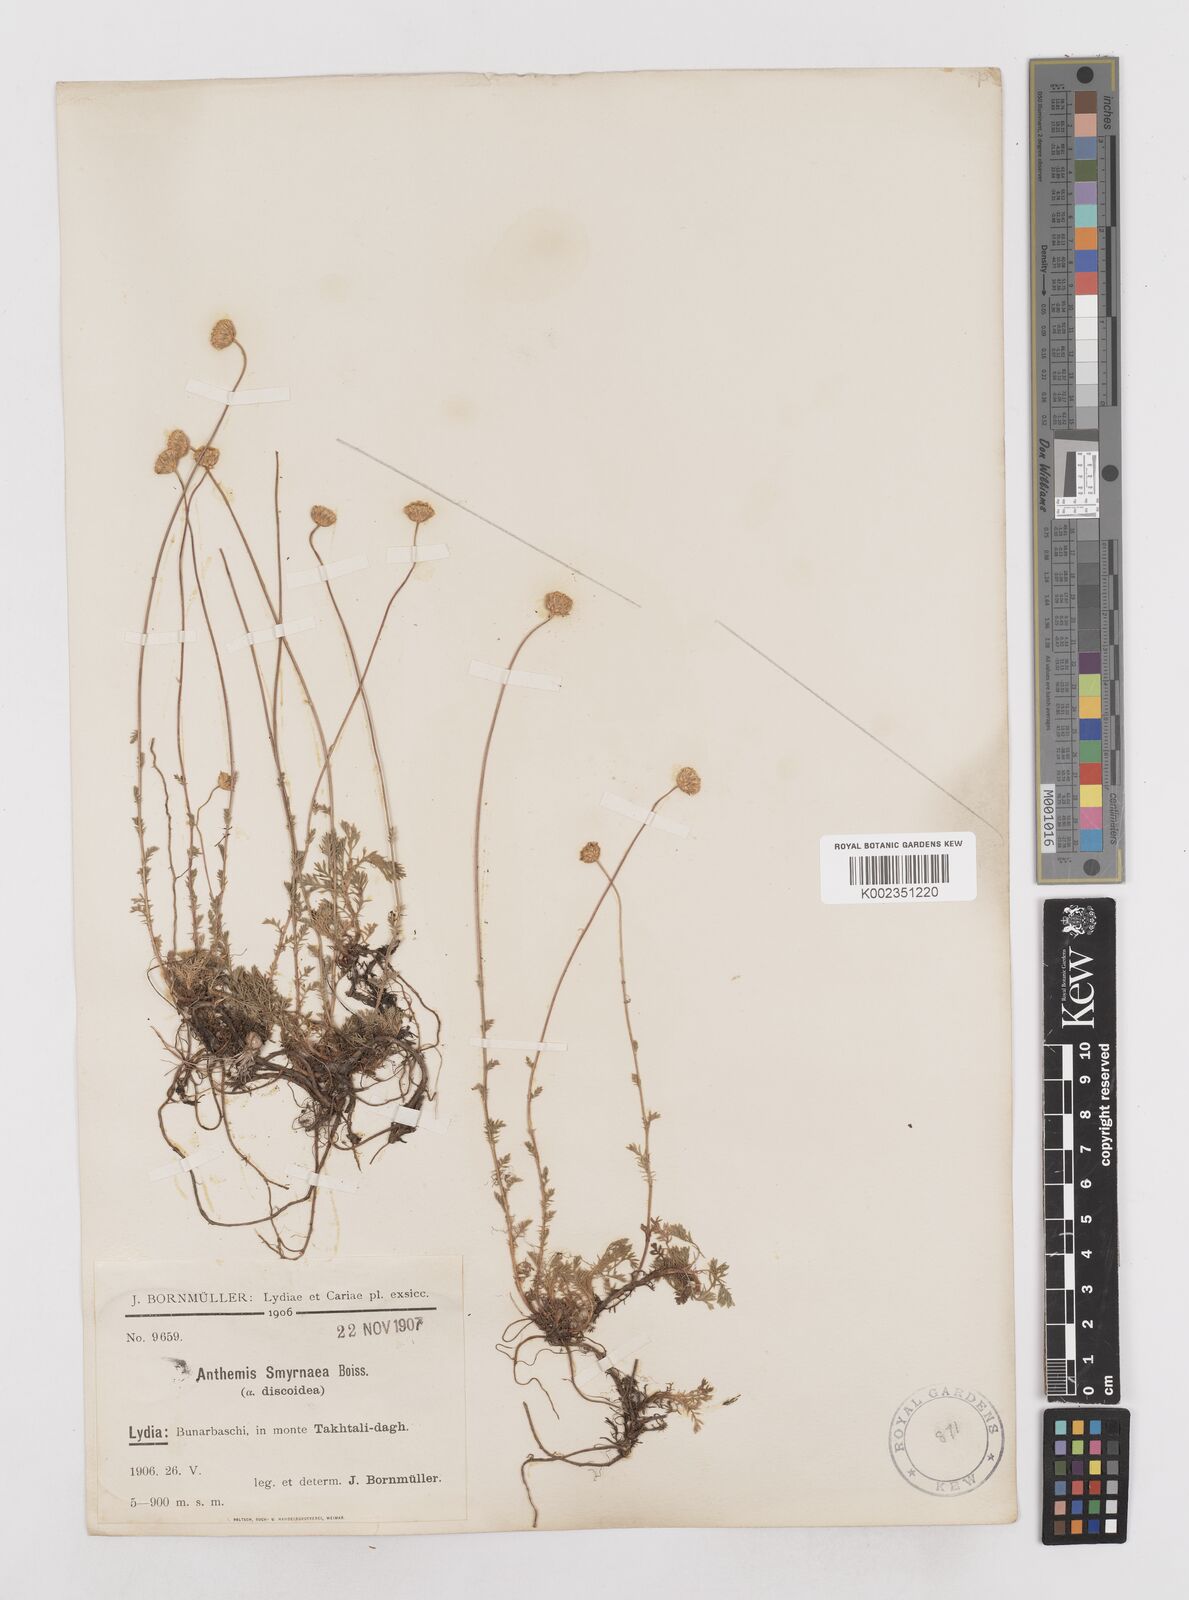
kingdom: Plantae
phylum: Tracheophyta
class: Magnoliopsida
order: Asterales
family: Asteraceae
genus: Anthemis
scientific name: Anthemis cretica
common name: Mountain dog-daisy
